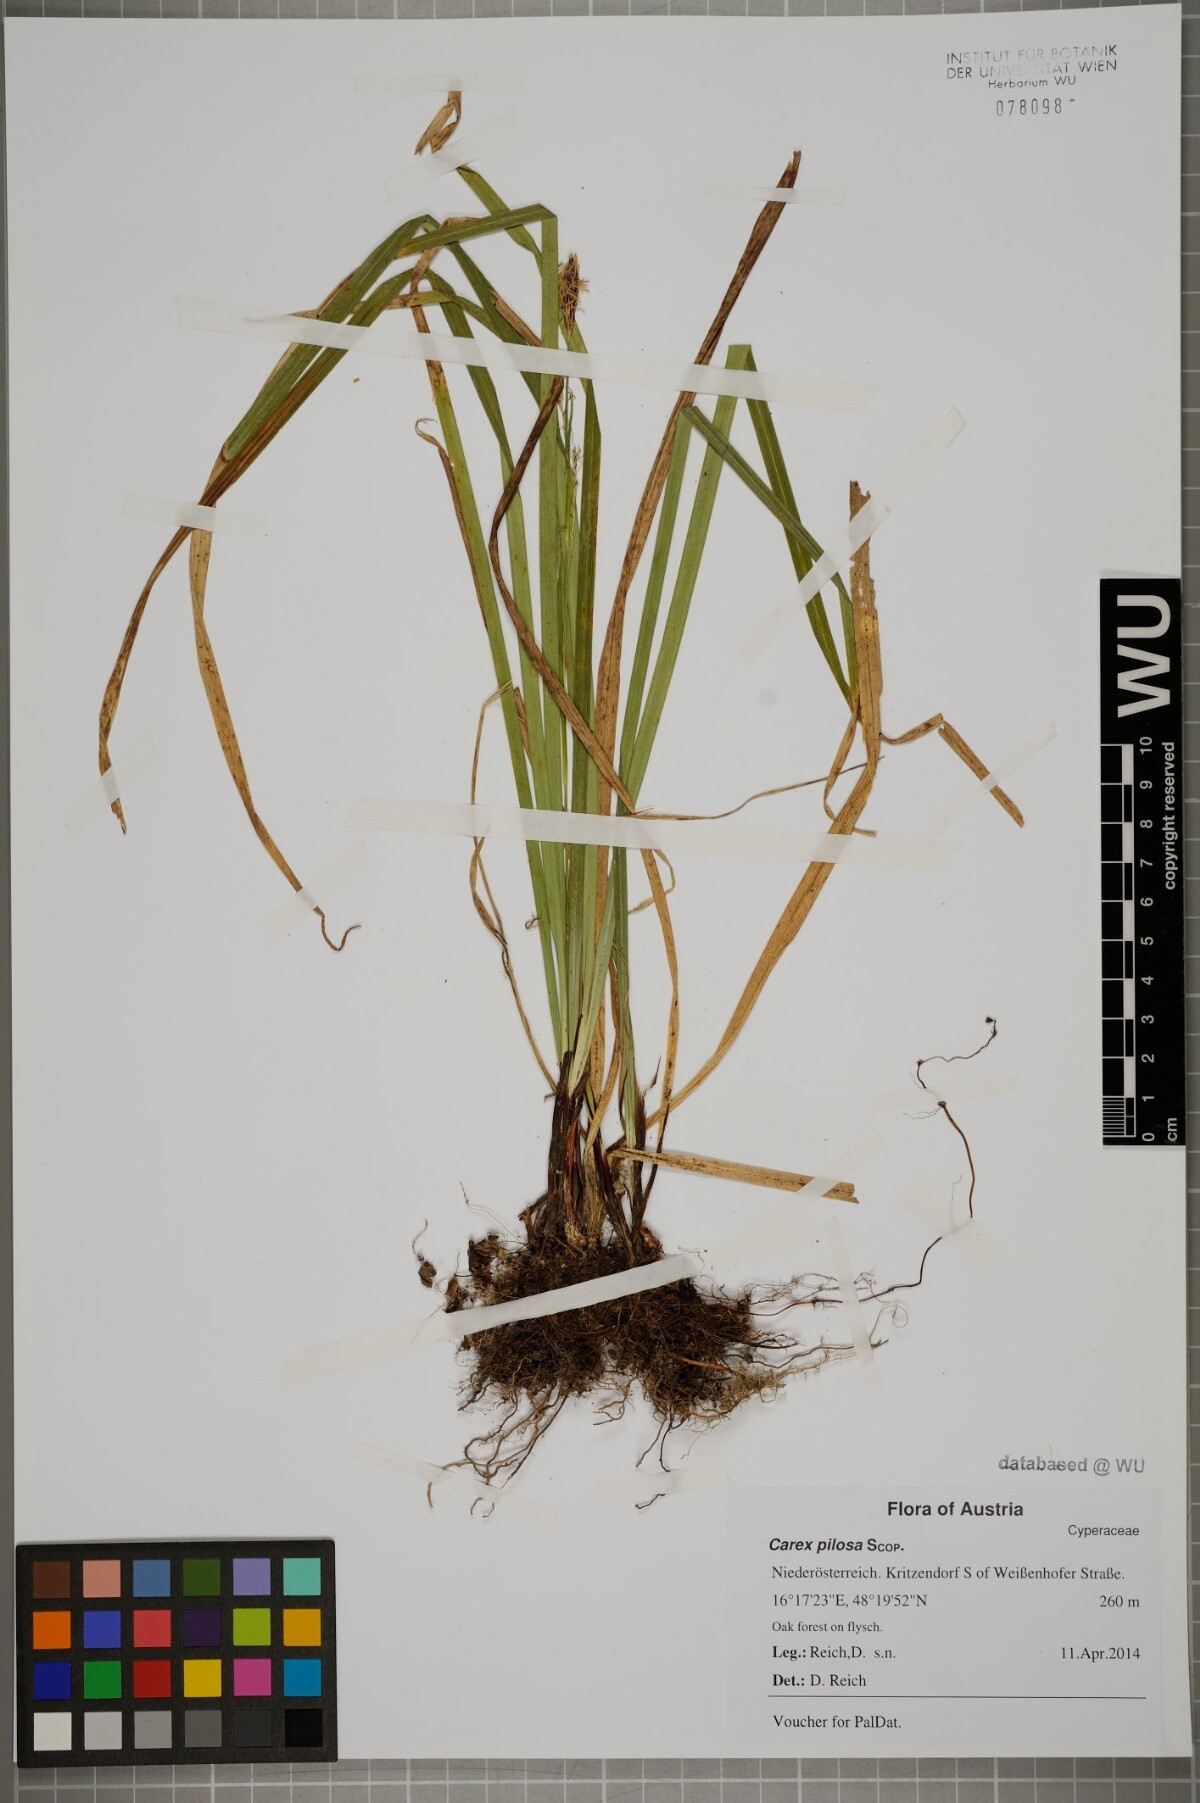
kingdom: Plantae
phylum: Tracheophyta
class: Liliopsida
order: Poales
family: Cyperaceae
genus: Carex
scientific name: Carex pilosa
